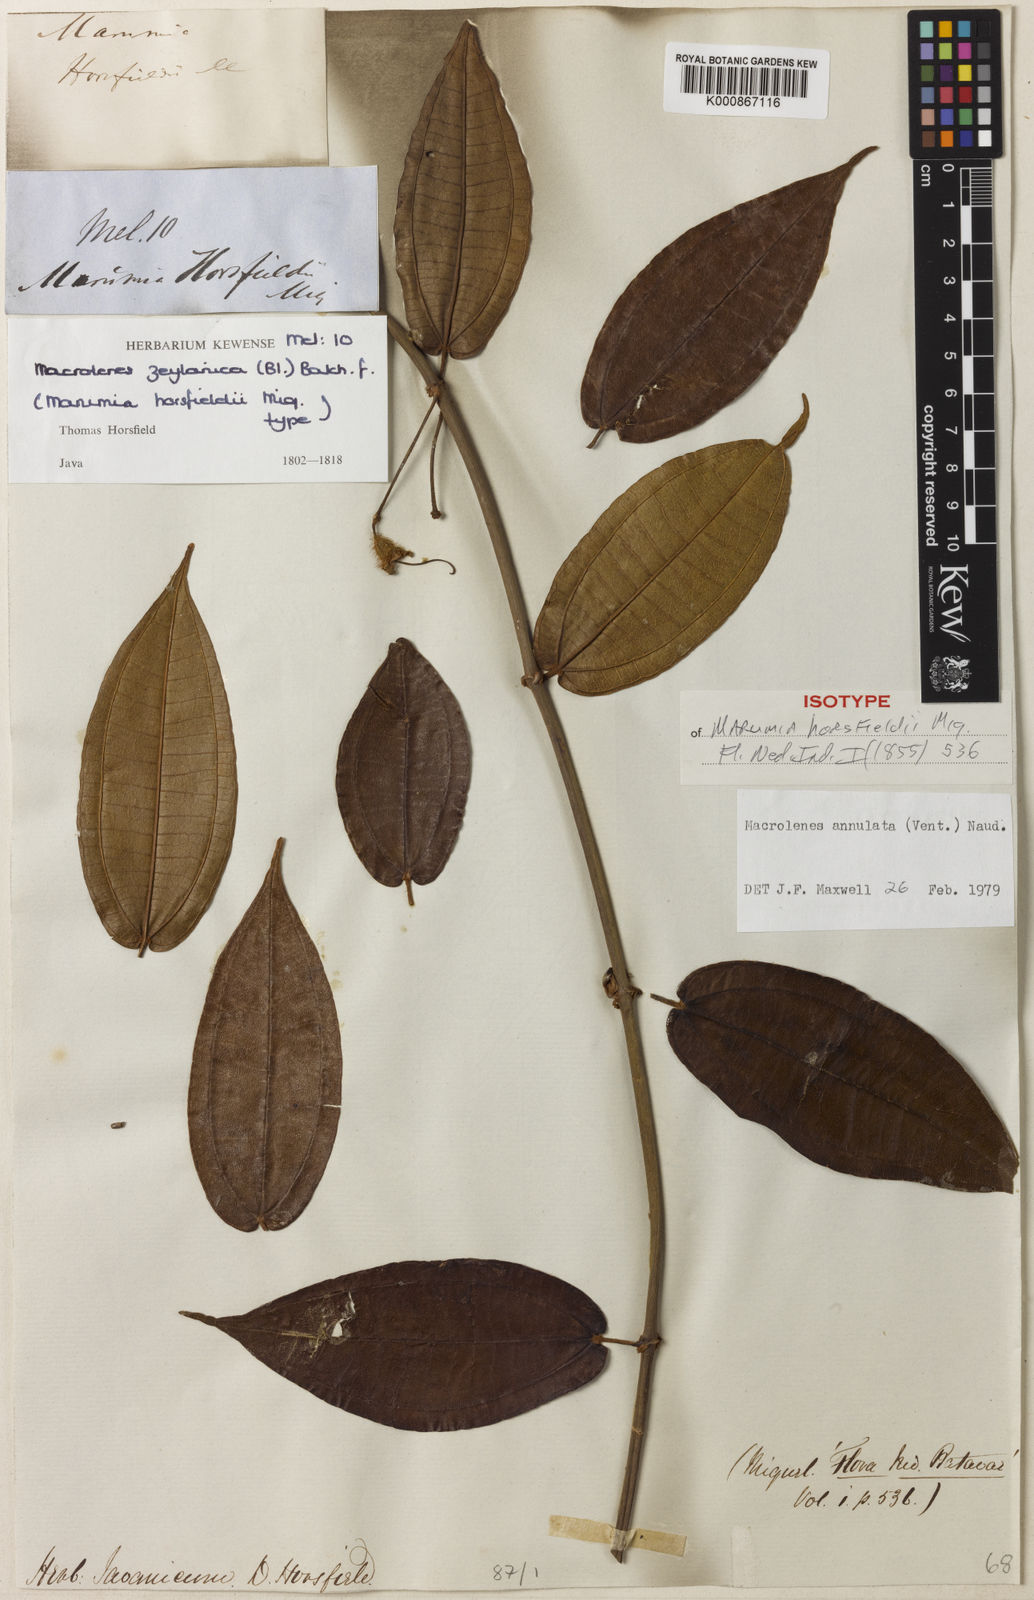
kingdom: Plantae
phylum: Tracheophyta
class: Magnoliopsida
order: Myrtales
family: Melastomataceae
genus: Macrolenes
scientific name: Macrolenes annulata
